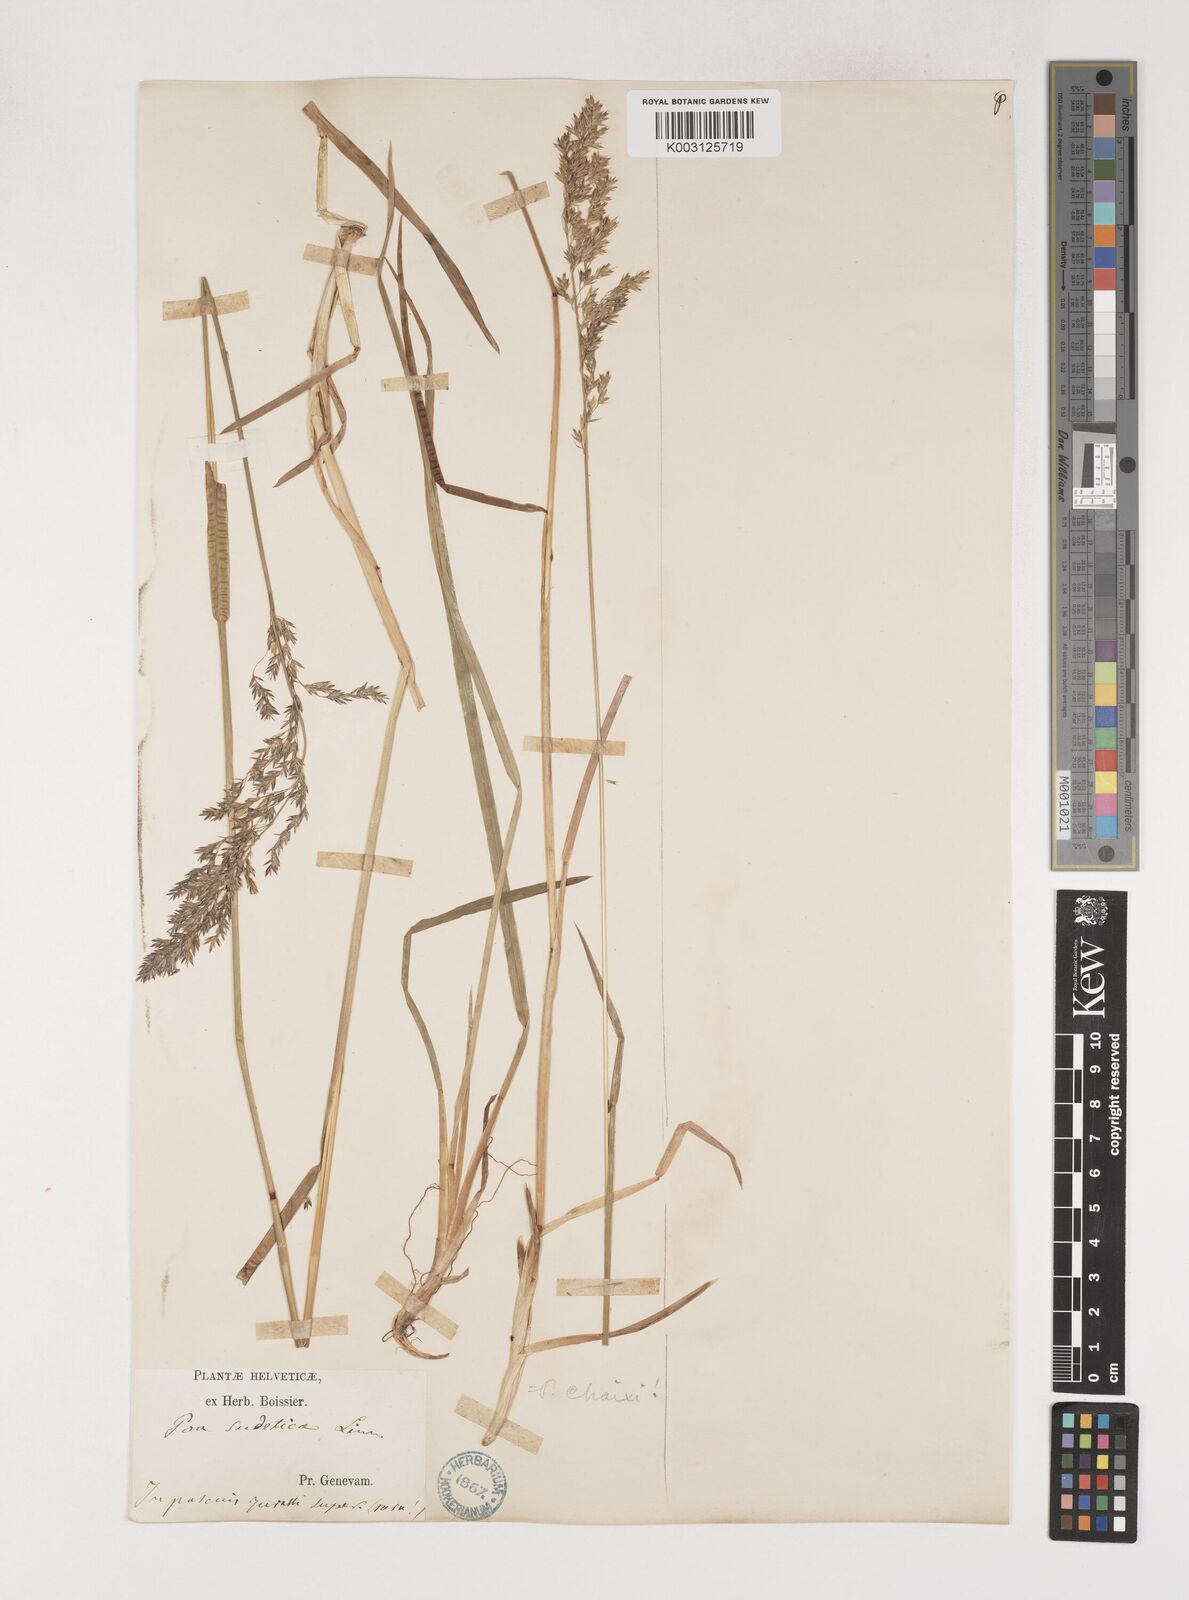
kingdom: Plantae
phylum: Tracheophyta
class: Liliopsida
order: Poales
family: Poaceae
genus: Poa
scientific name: Poa chaixii
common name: Broad-leaved meadow-grass
